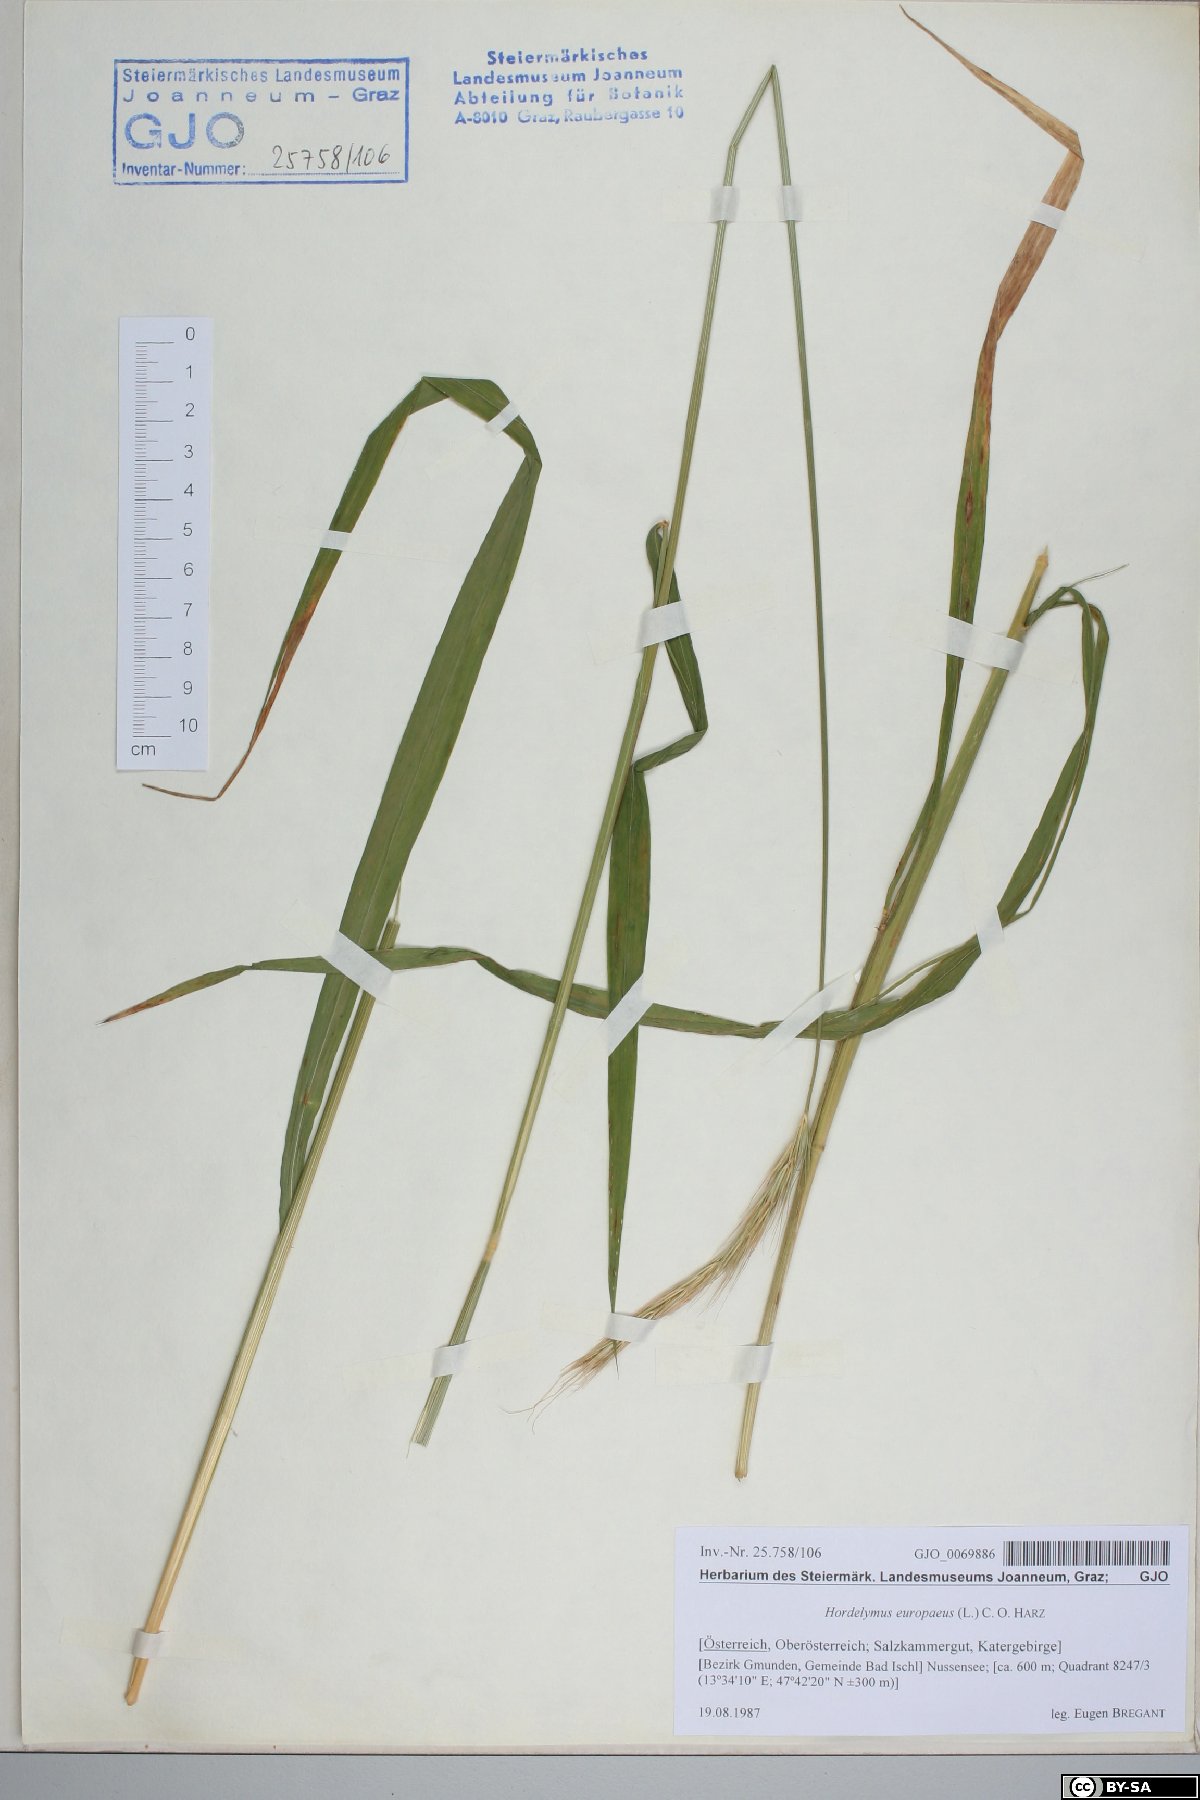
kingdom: Plantae
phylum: Tracheophyta
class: Liliopsida
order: Poales
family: Poaceae
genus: Hordelymus
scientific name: Hordelymus europaeus
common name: Wood-barley
